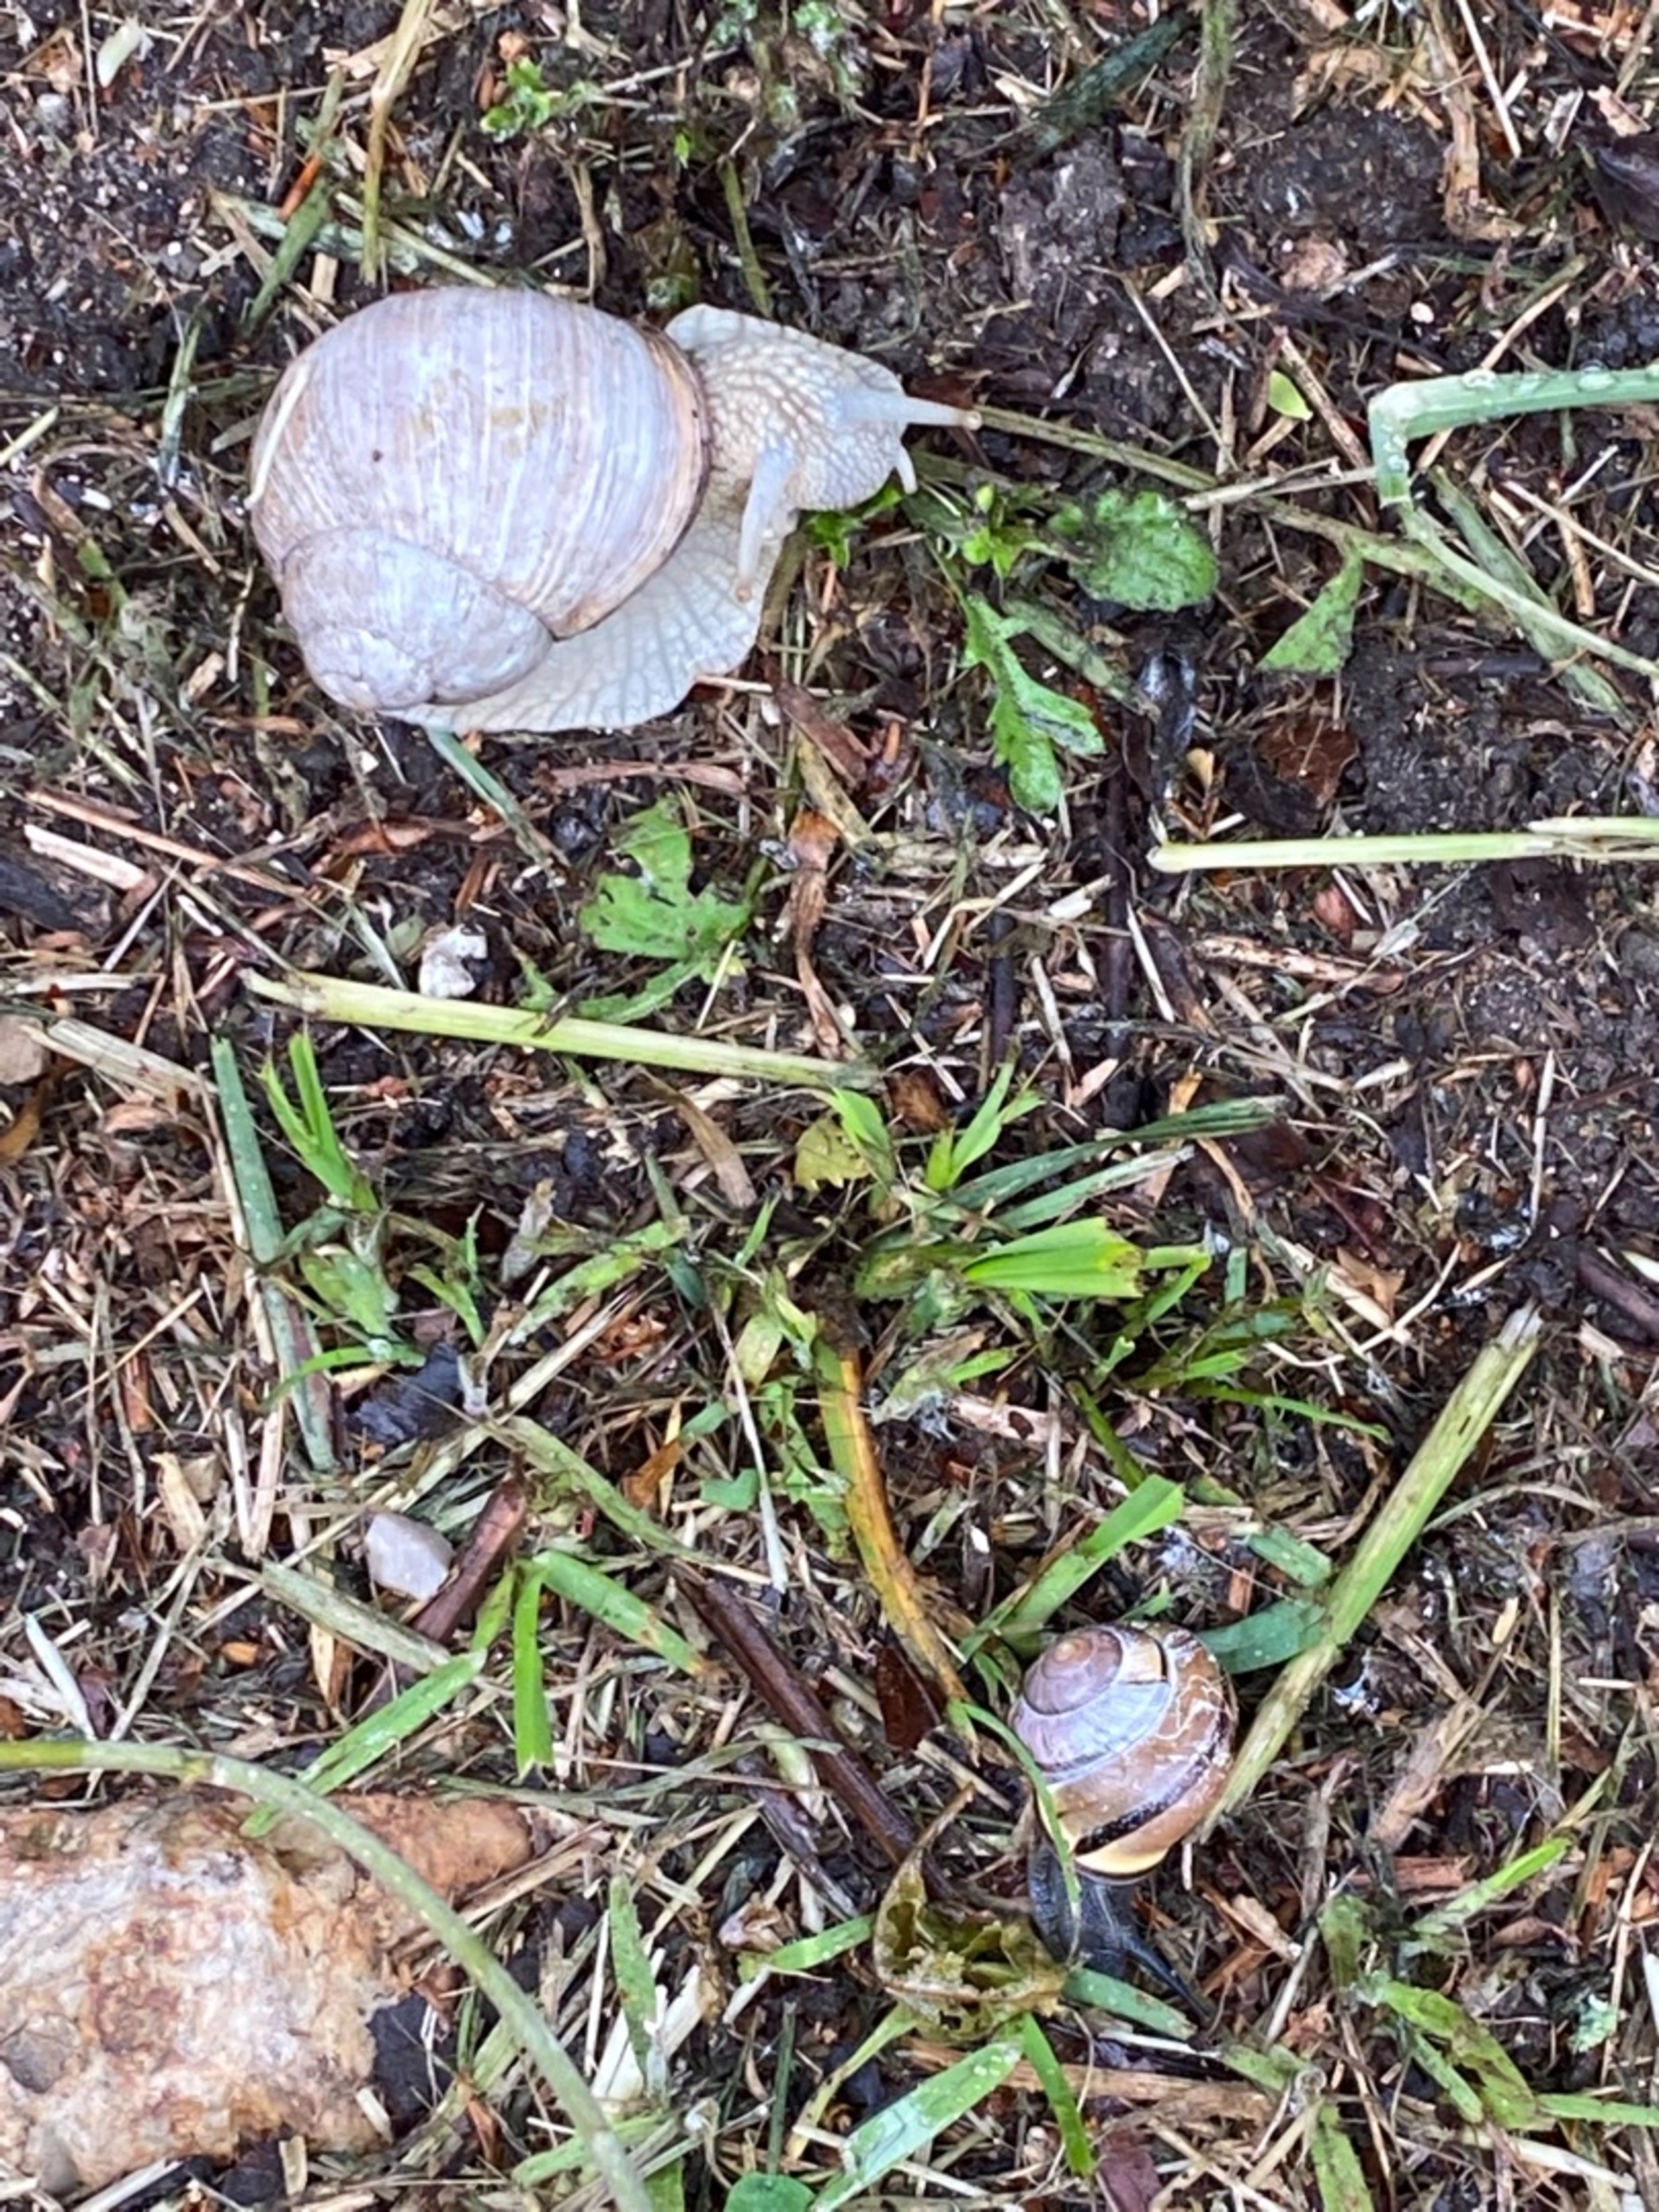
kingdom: Animalia
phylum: Mollusca
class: Gastropoda
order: Stylommatophora
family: Helicidae
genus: Helix
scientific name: Helix pomatia
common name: Vinbjergsnegl
